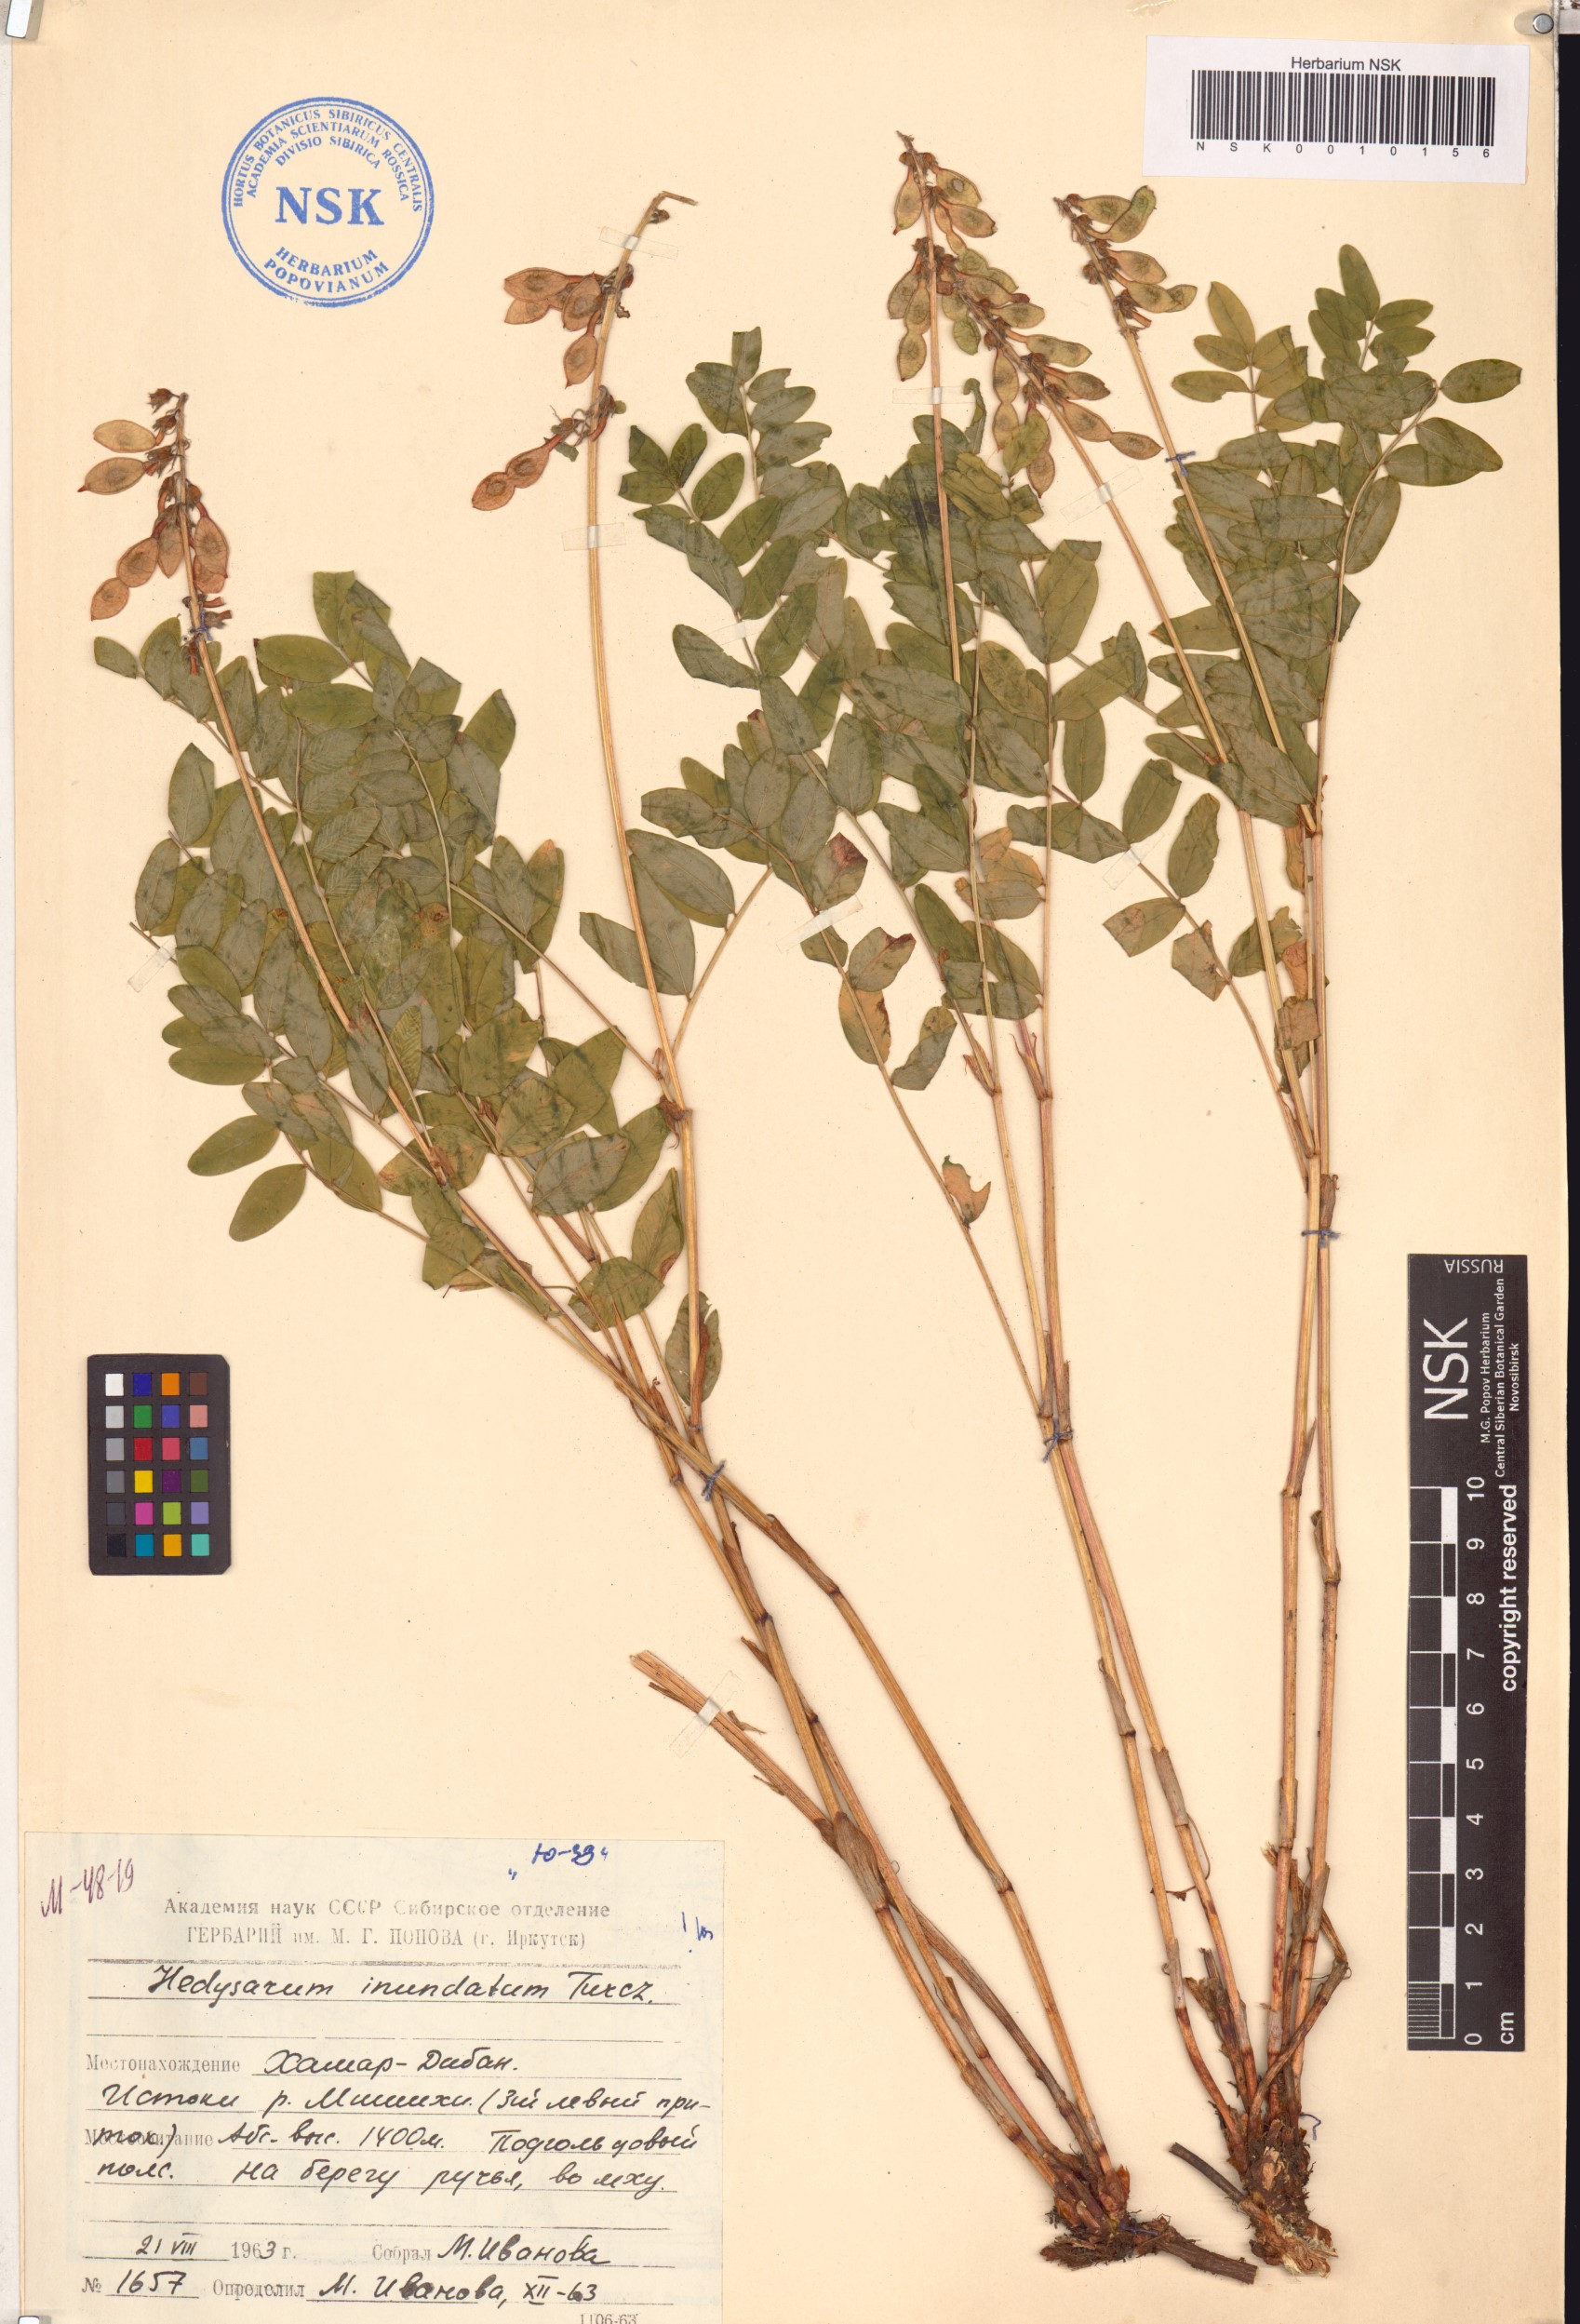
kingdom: Plantae
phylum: Tracheophyta
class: Magnoliopsida
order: Fabales
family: Fabaceae
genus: Hedysarum
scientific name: Hedysarum inundatum
